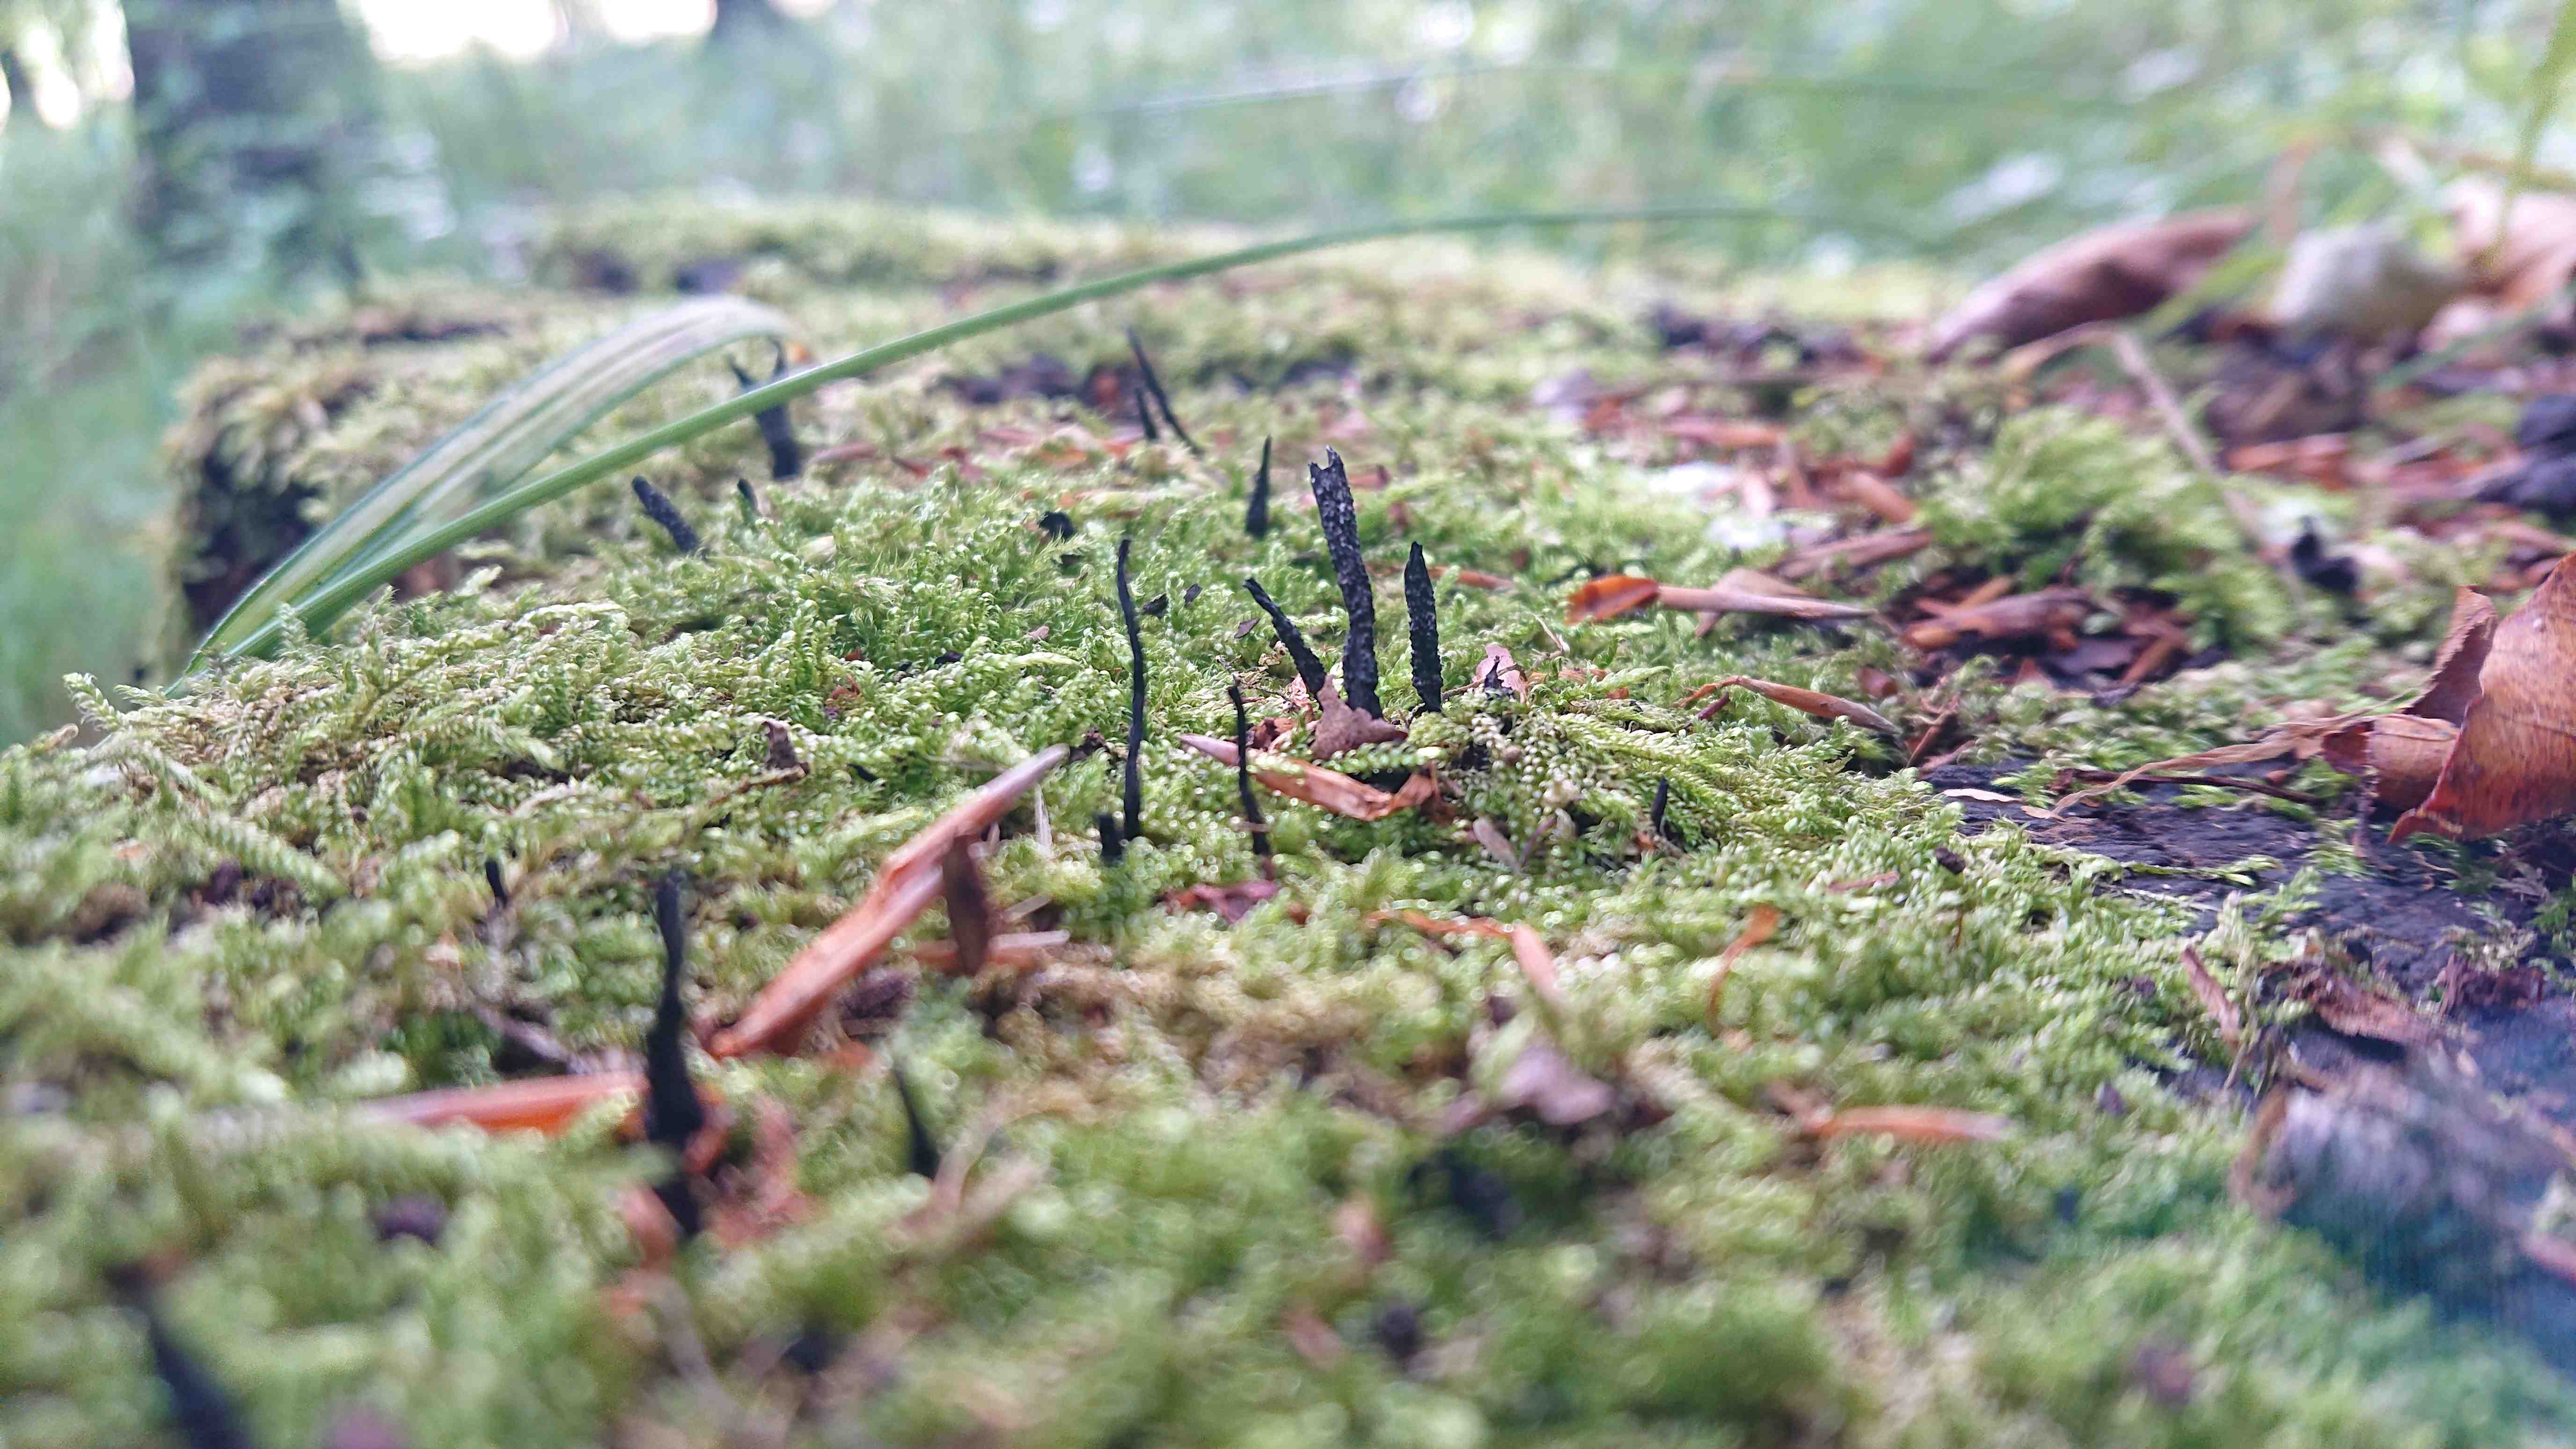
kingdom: Fungi
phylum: Ascomycota
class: Sordariomycetes
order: Xylariales
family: Xylariaceae
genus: Xylaria
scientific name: Xylaria hypoxylon
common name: grenet stødsvamp
